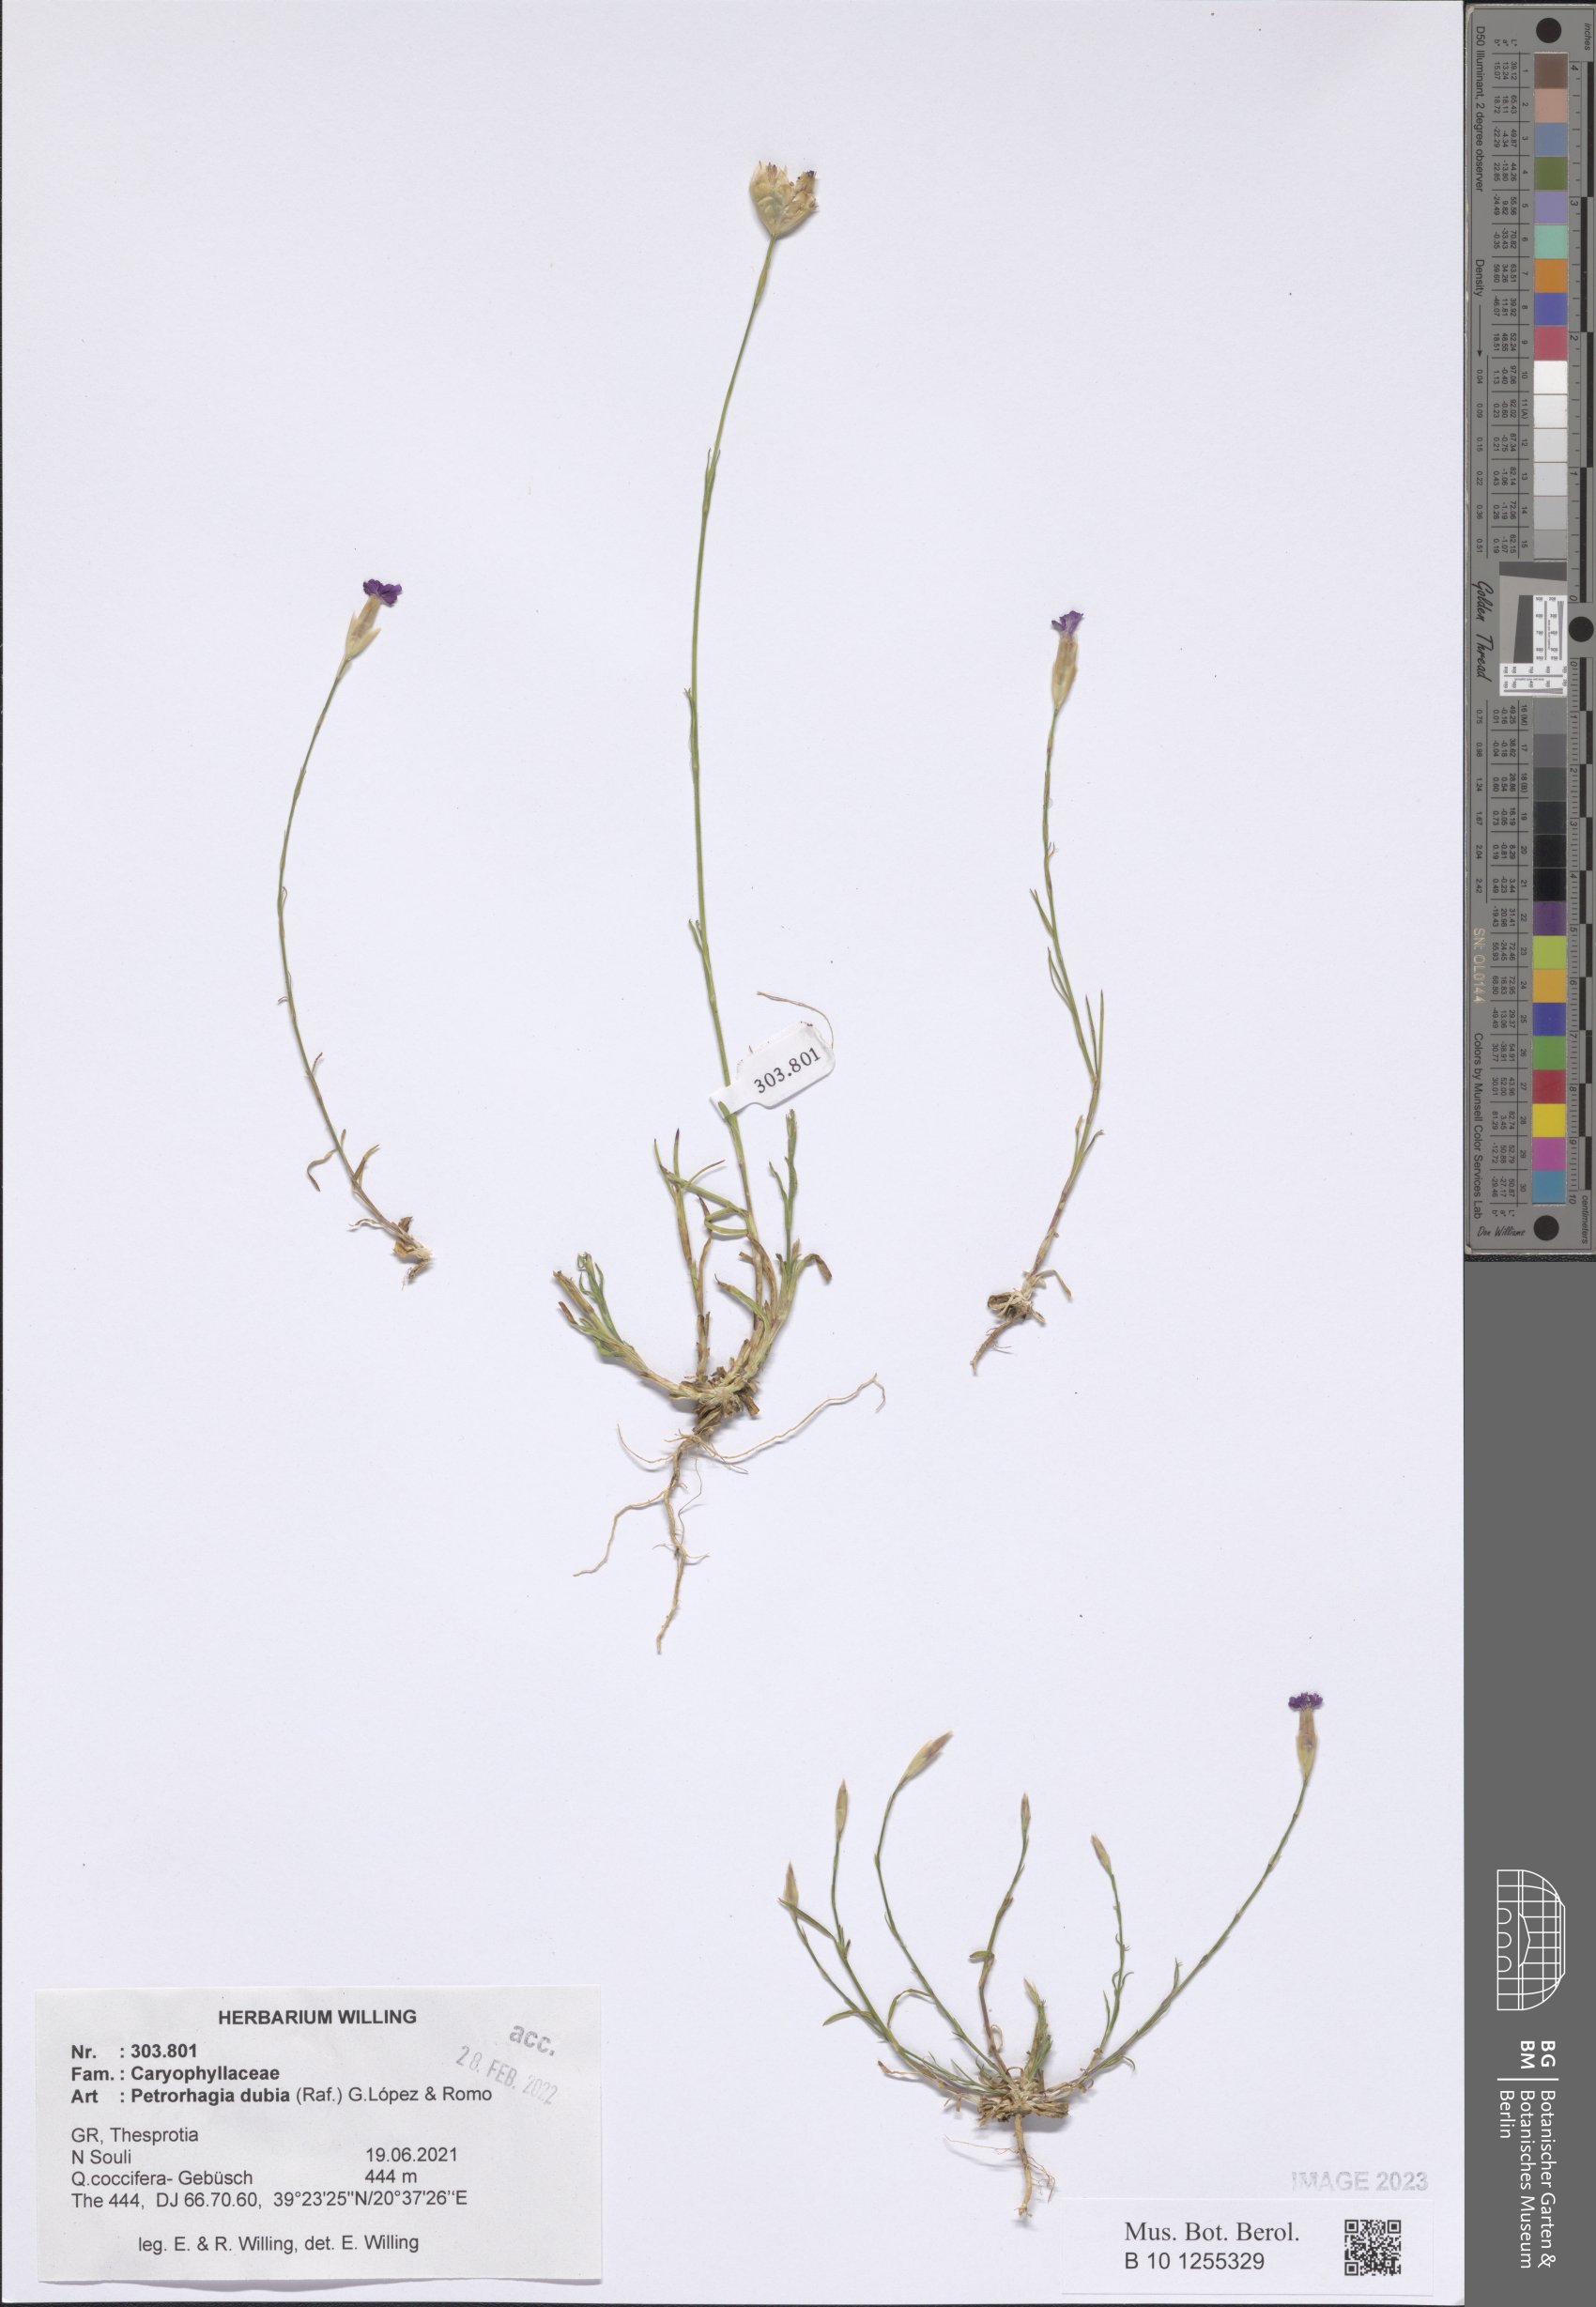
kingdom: Plantae
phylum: Tracheophyta
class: Magnoliopsida
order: Caryophyllales
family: Caryophyllaceae
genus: Petrorhagia
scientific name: Petrorhagia dubia
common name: Hairypink
